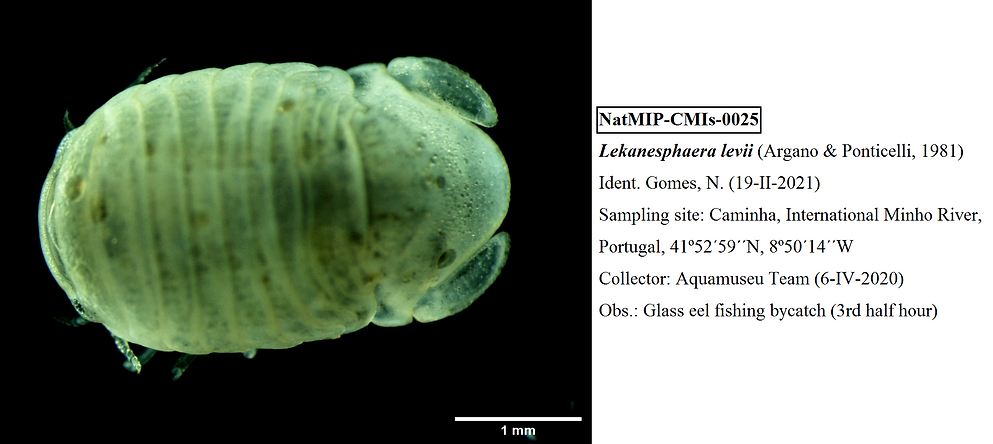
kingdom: Animalia
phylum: Arthropoda
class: Malacostraca
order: Isopoda
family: Sphaeromatidae
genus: Lekanesphaera
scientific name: Lekanesphaera levii
